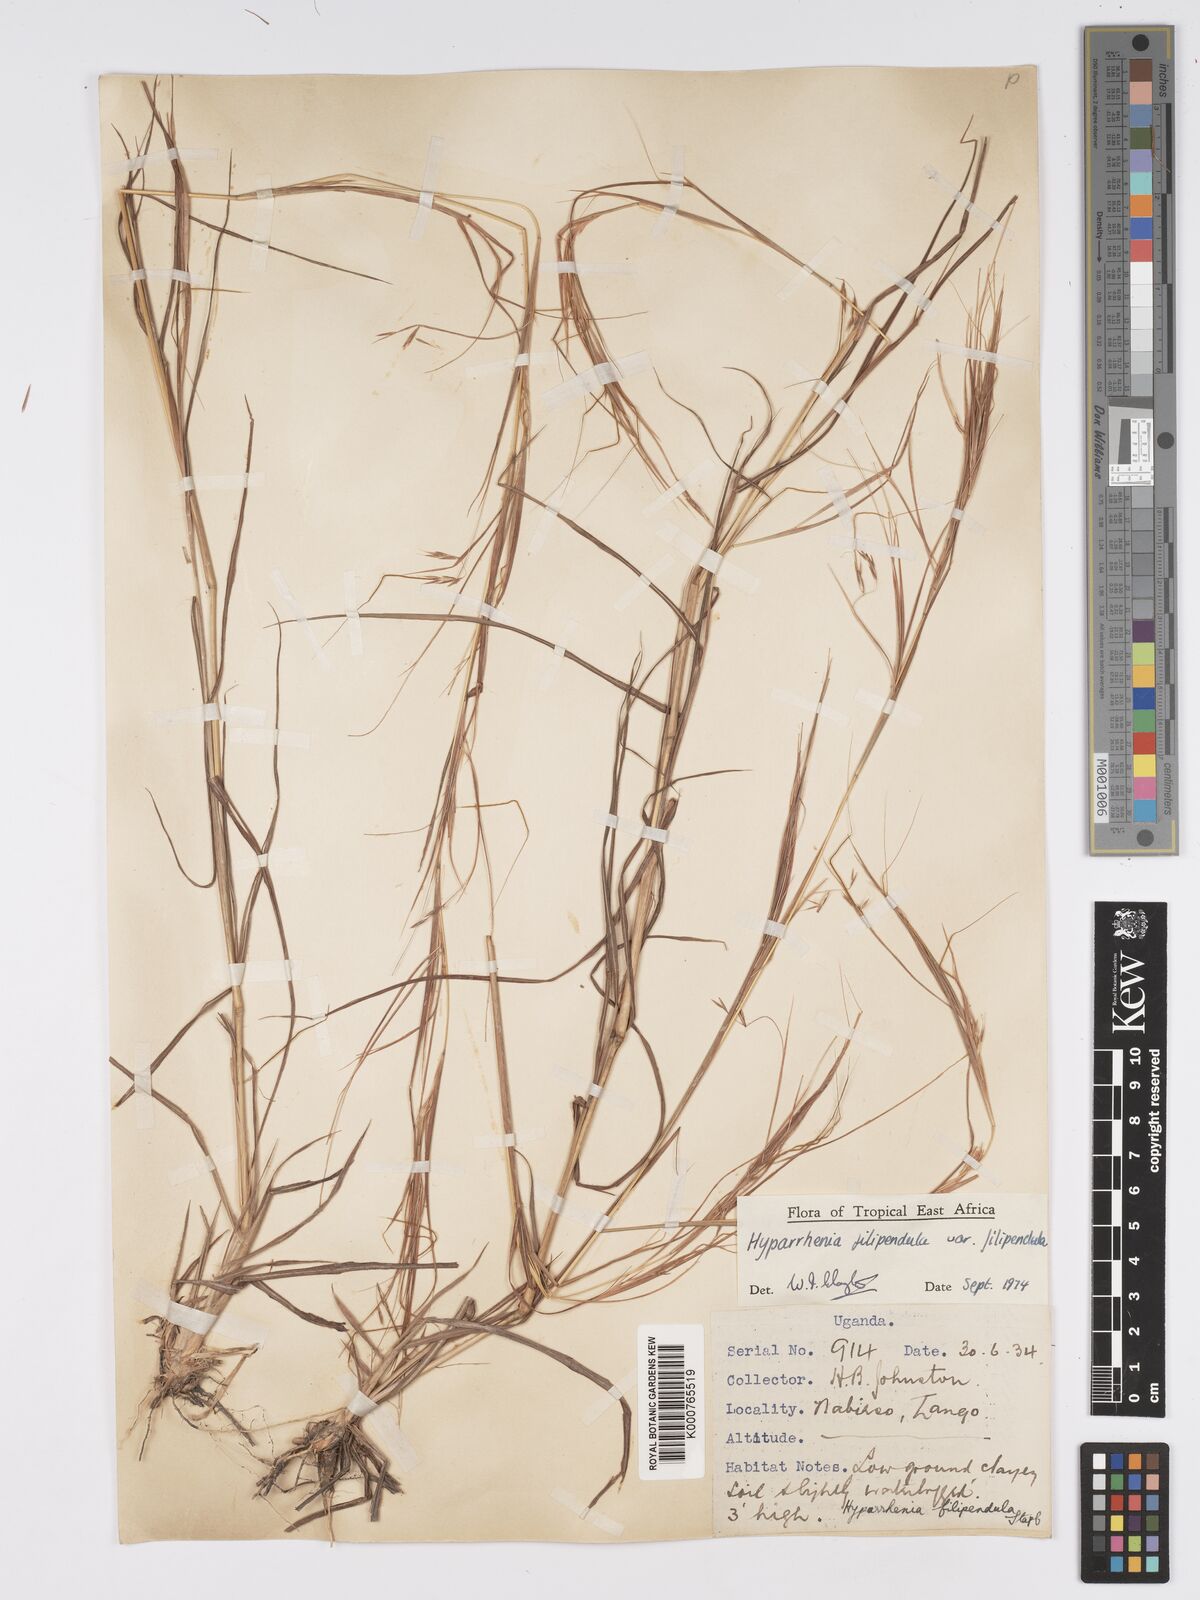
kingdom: Plantae
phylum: Tracheophyta
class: Liliopsida
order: Poales
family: Poaceae
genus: Hyparrhenia
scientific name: Hyparrhenia filipendula
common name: Tambookie grass
